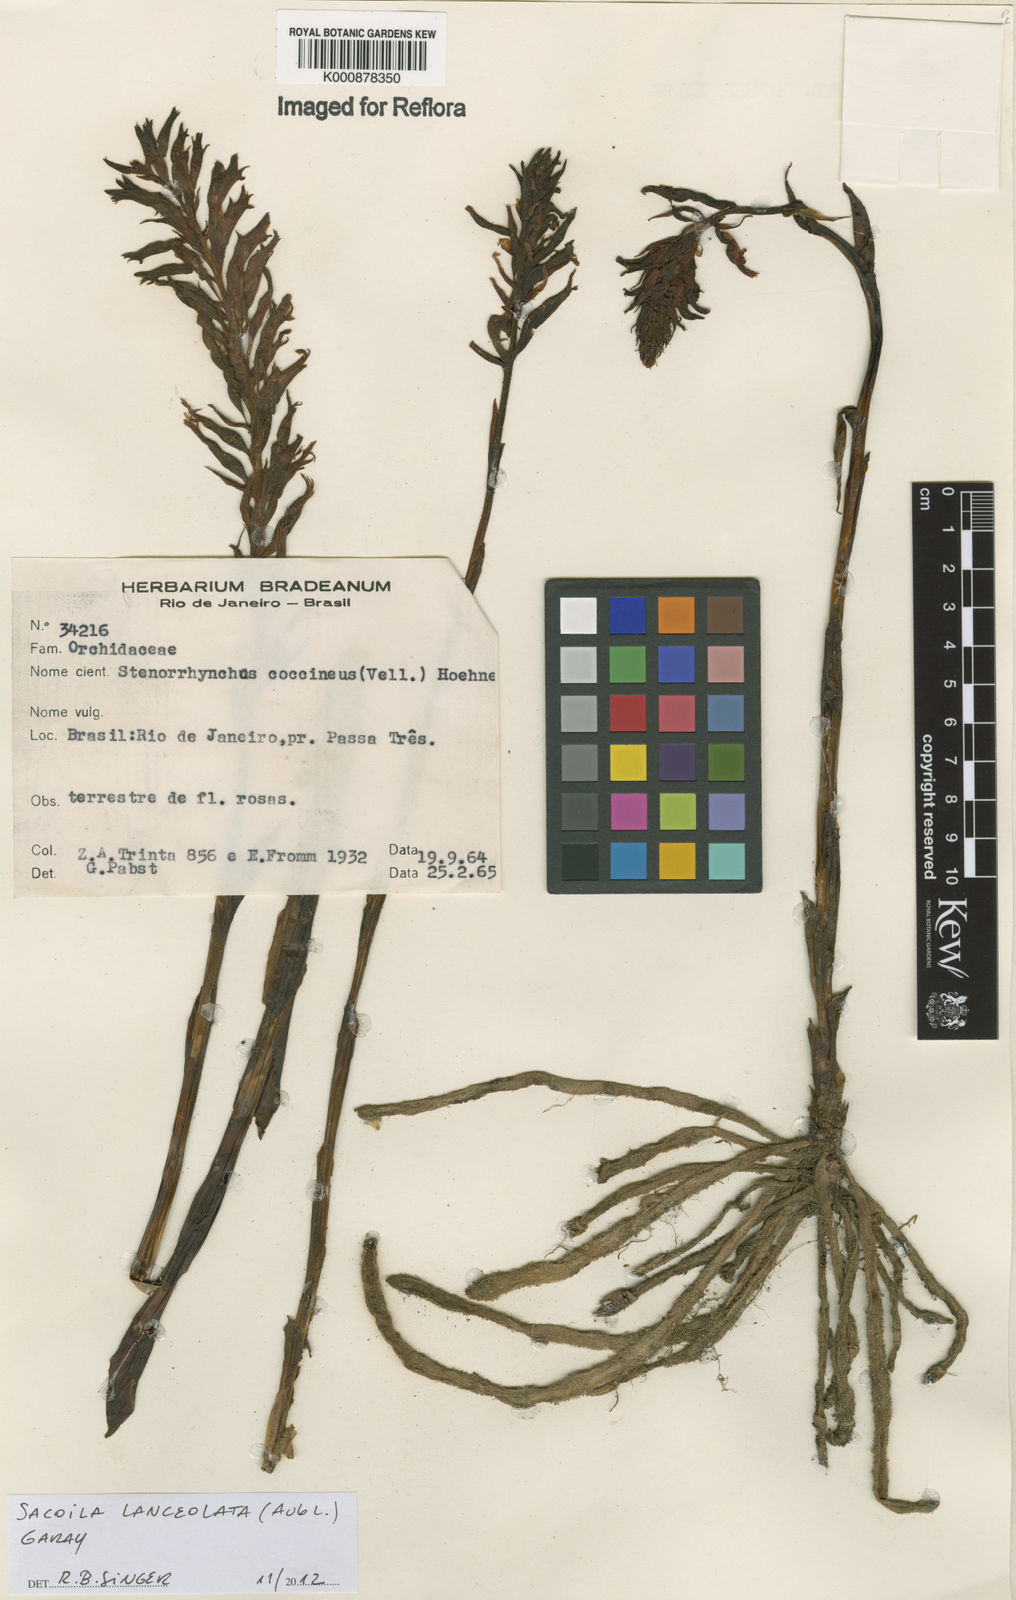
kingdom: Plantae
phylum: Tracheophyta
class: Liliopsida
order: Asparagales
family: Orchidaceae
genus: Sacoila
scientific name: Sacoila lanceolata
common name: Leafless beaked ladiestresses
